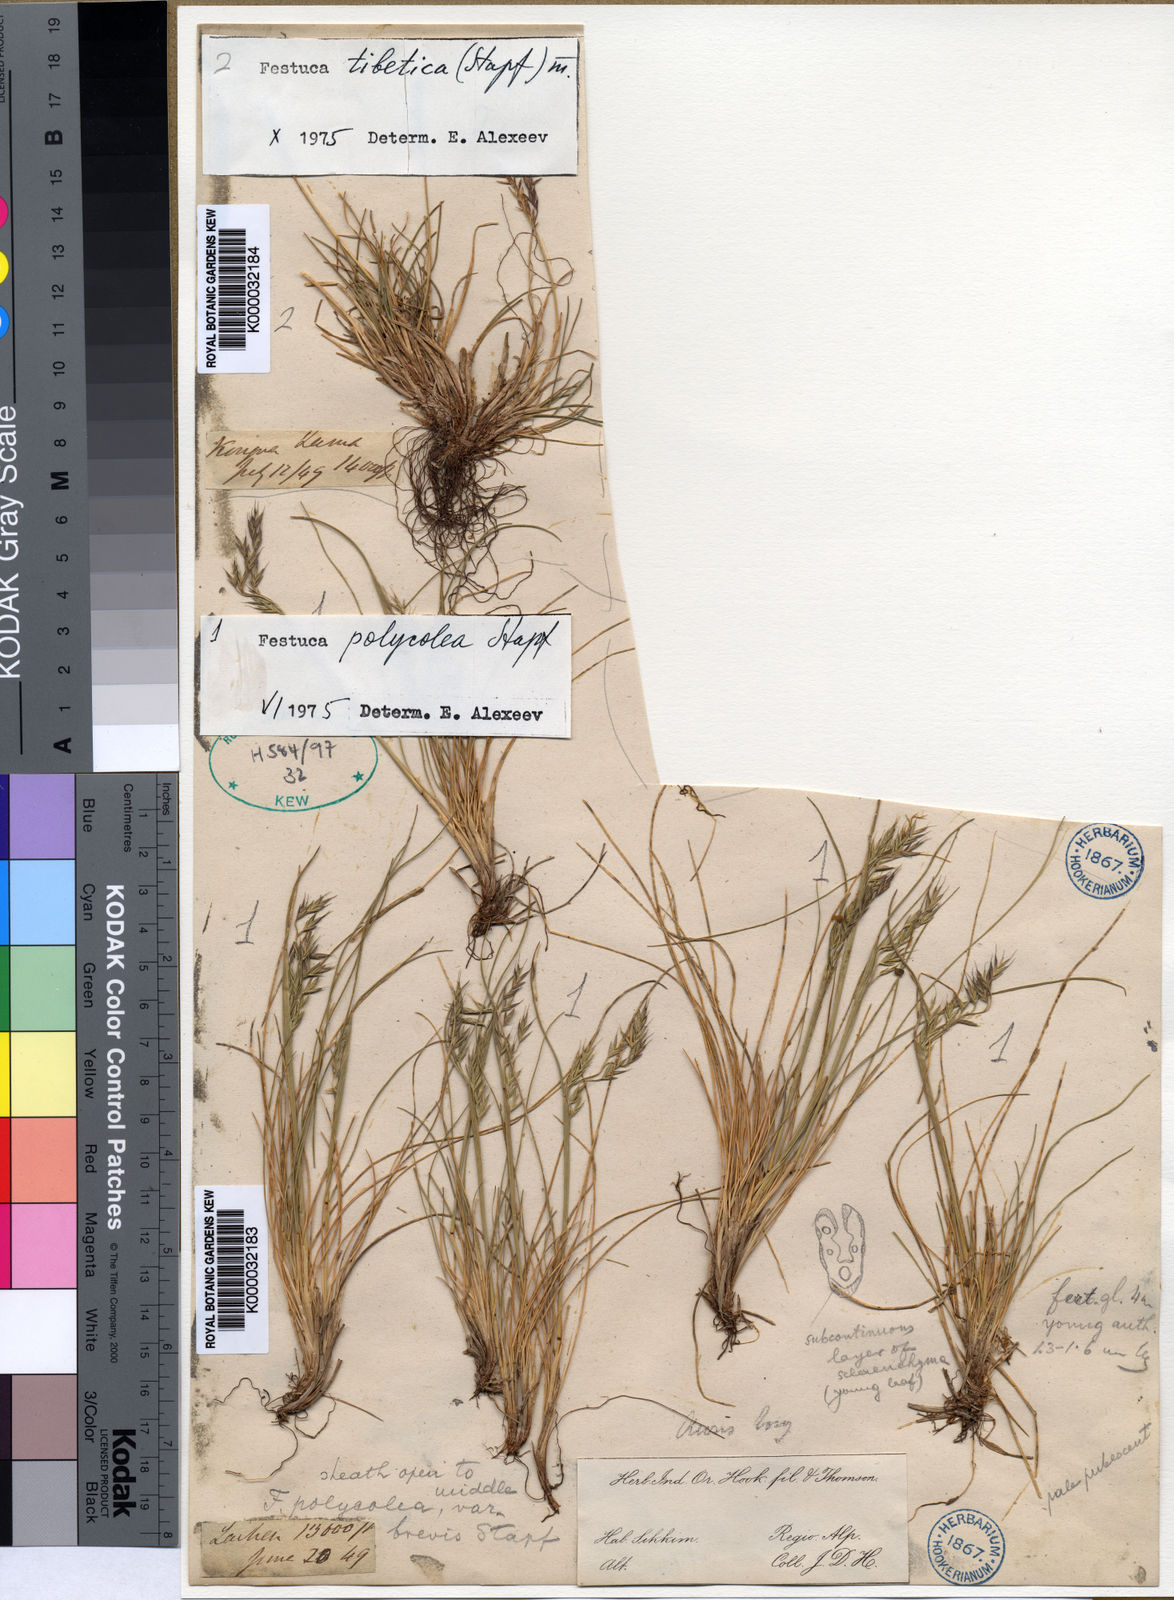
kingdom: Plantae
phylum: Tracheophyta
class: Liliopsida
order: Poales
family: Poaceae
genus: Festuca
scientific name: Festuca polycolea
